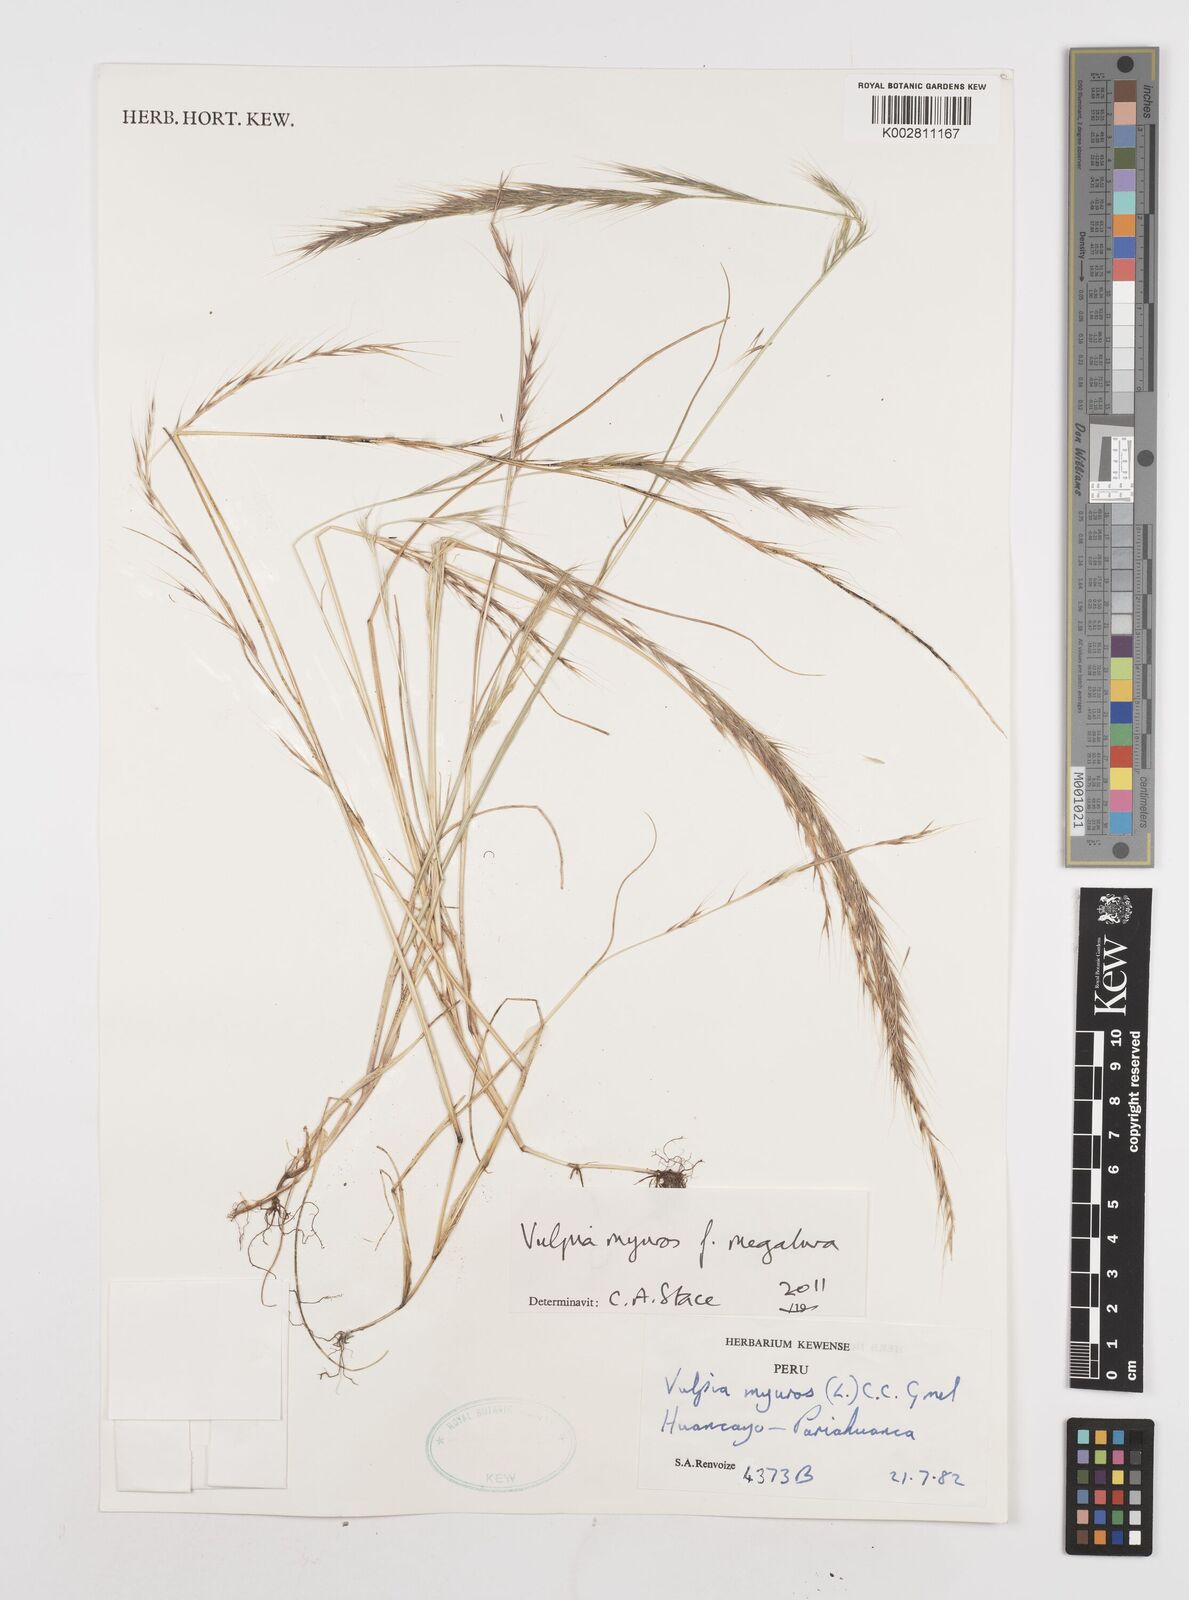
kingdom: Plantae
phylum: Tracheophyta
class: Liliopsida
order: Poales
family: Poaceae
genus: Festuca
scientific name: Festuca myuros
